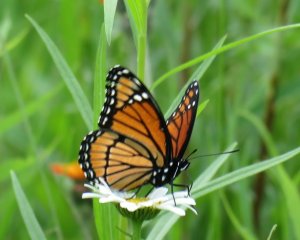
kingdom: Animalia
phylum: Arthropoda
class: Insecta
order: Lepidoptera
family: Nymphalidae
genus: Limenitis
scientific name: Limenitis archippus
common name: Viceroy
